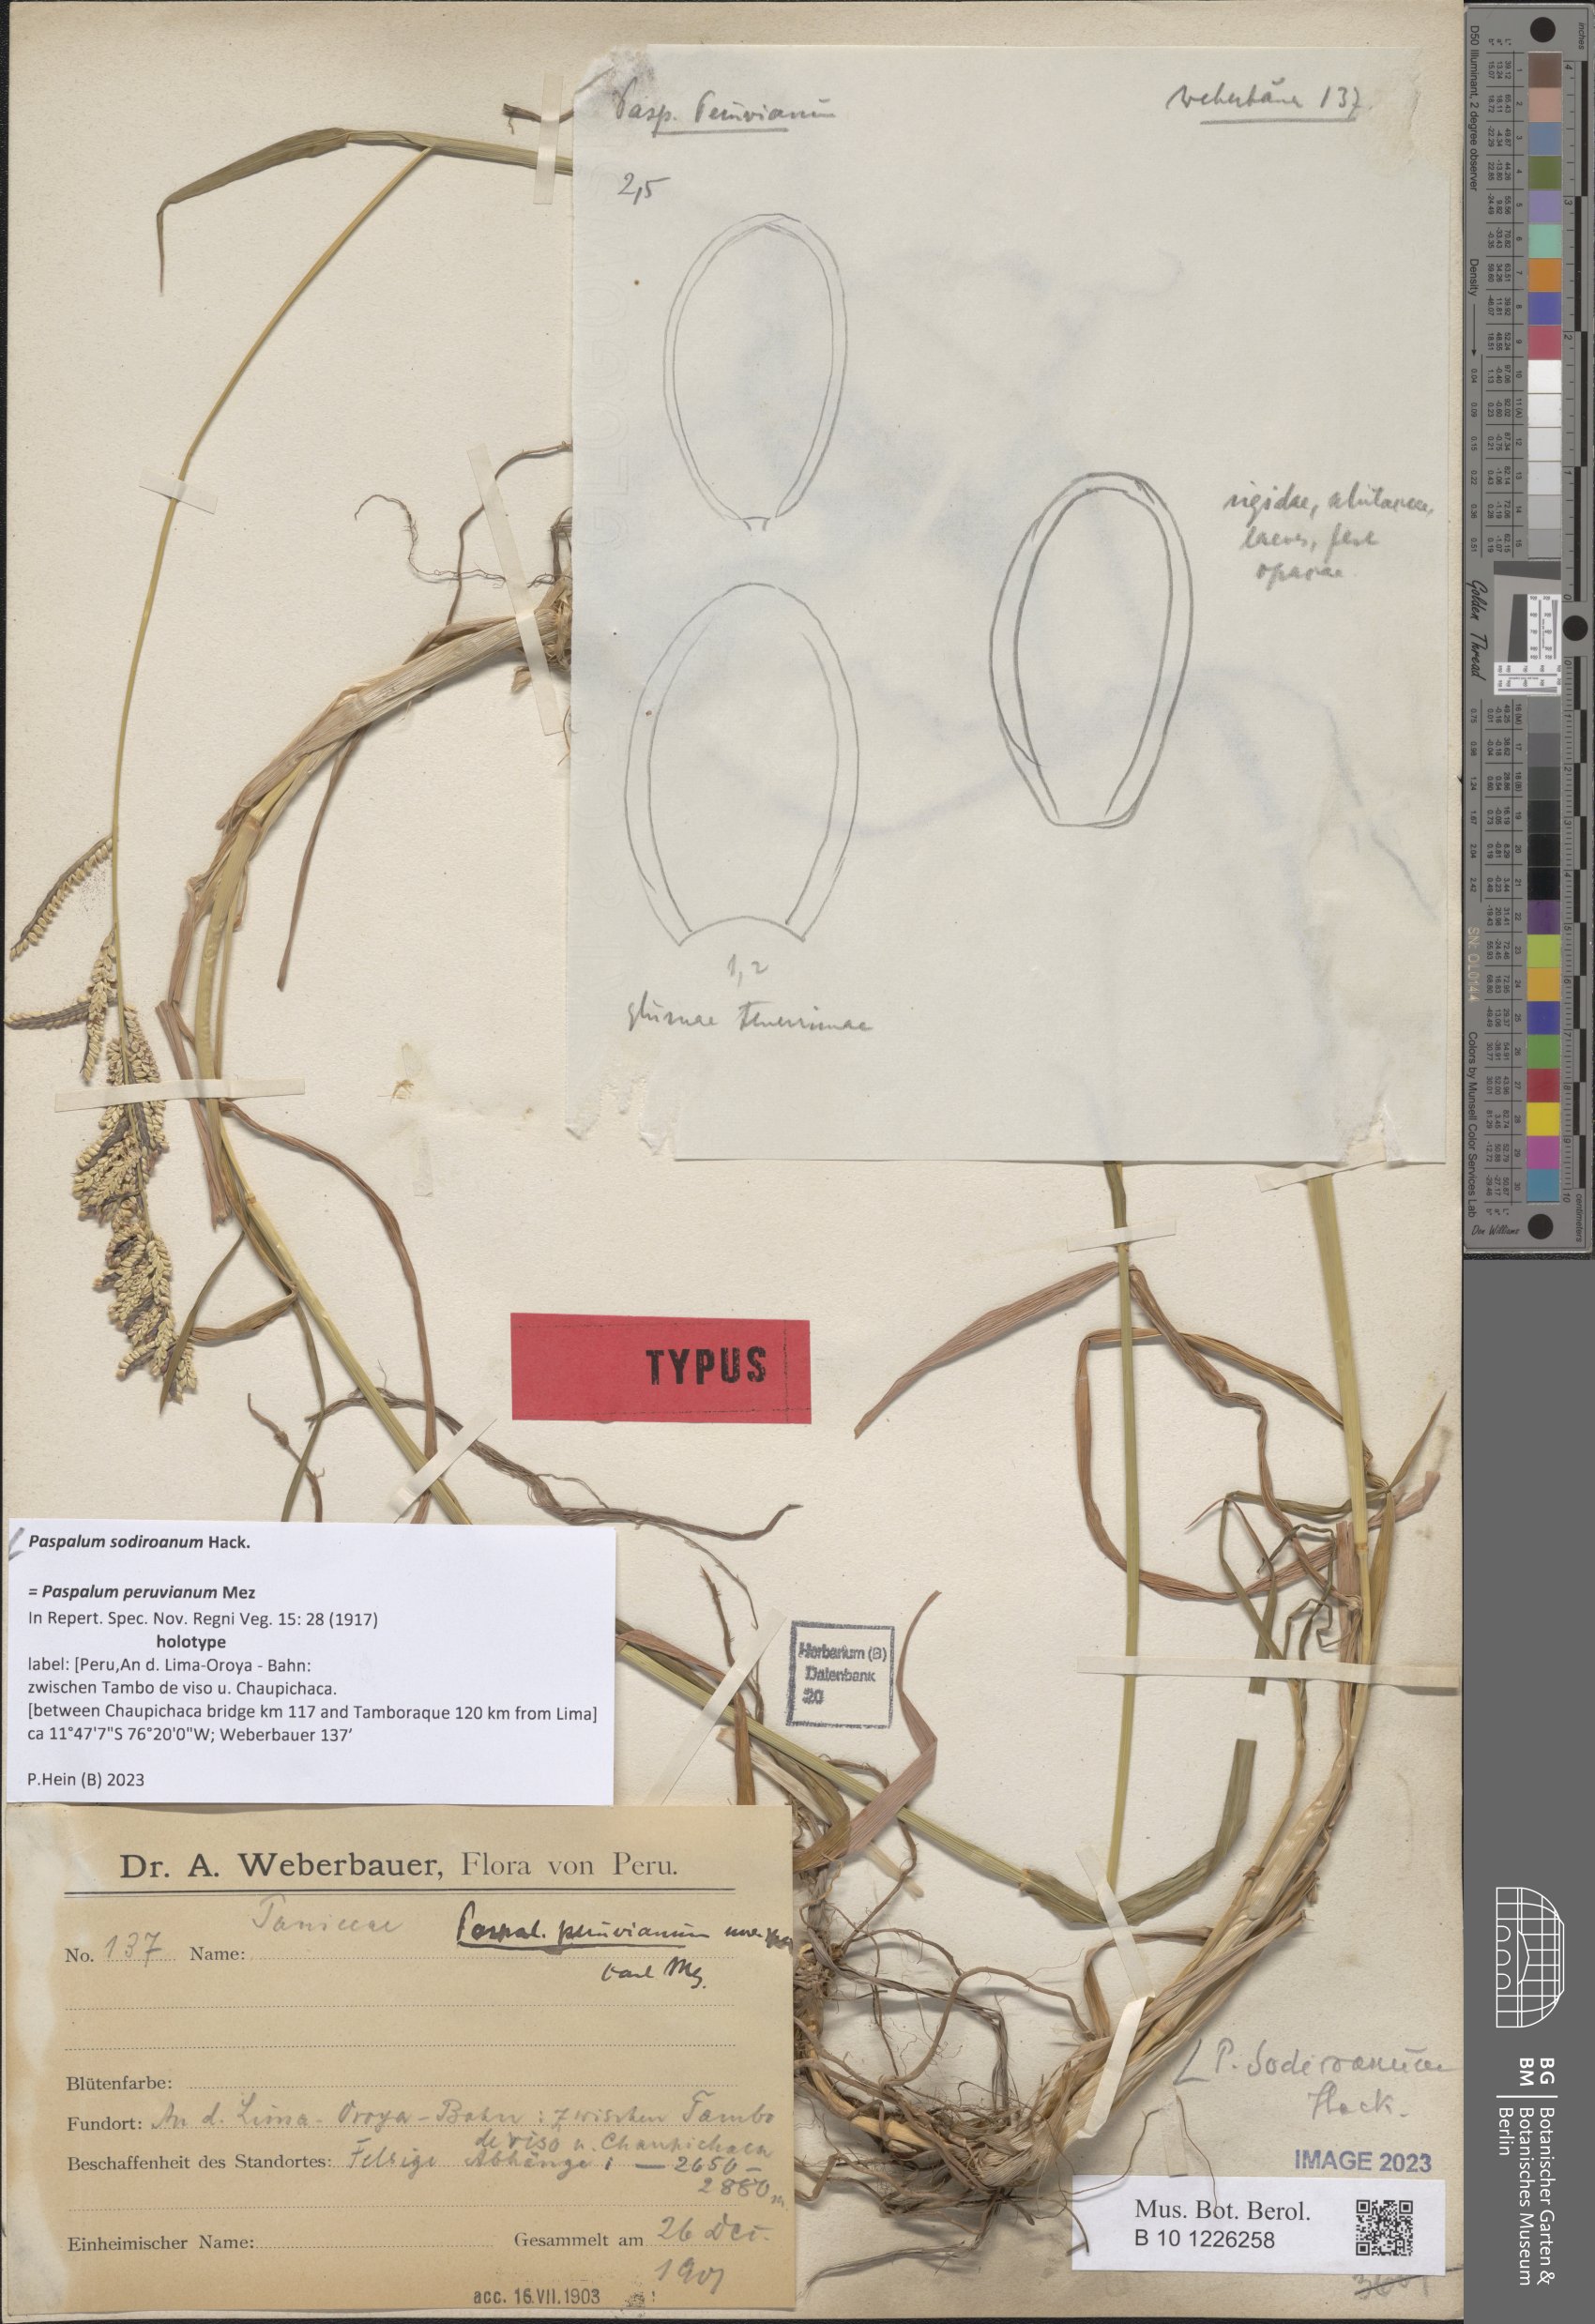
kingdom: Plantae
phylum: Tracheophyta
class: Liliopsida
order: Poales
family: Poaceae
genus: Paspalum
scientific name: Paspalum sodiroanum
